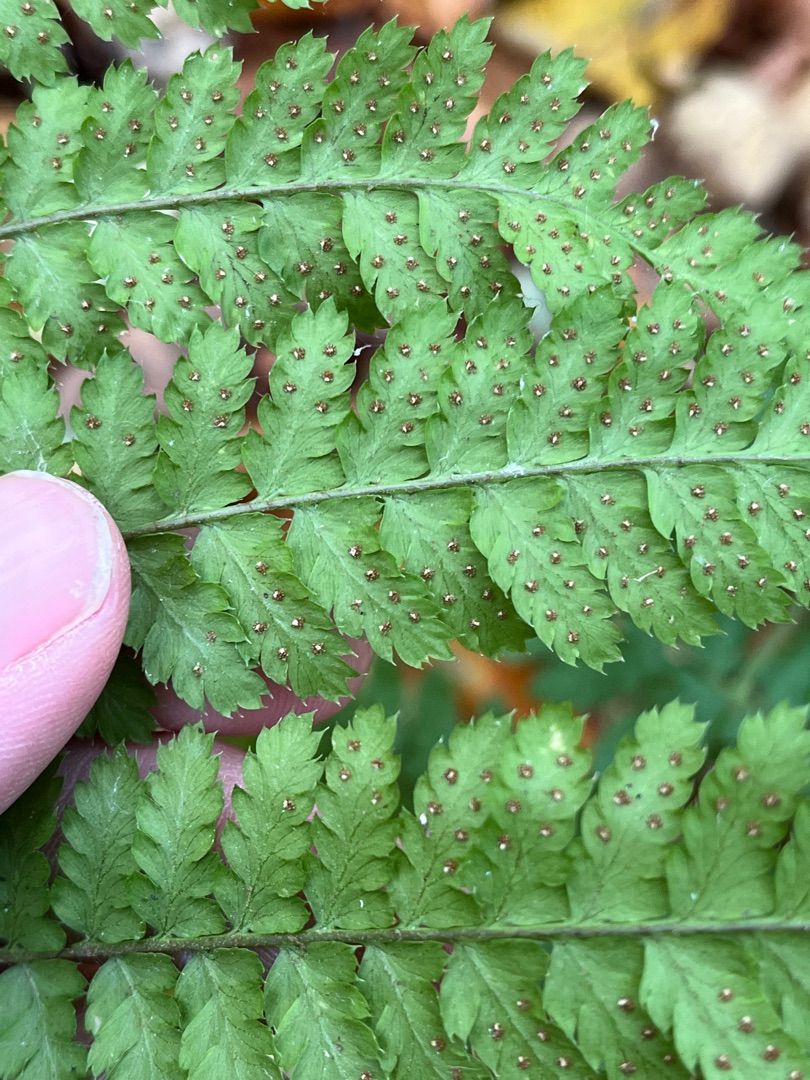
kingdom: Plantae
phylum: Tracheophyta
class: Polypodiopsida
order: Polypodiales
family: Dryopteridaceae
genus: Dryopteris
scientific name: Dryopteris dilatata
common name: Bredbladet mangeløv
